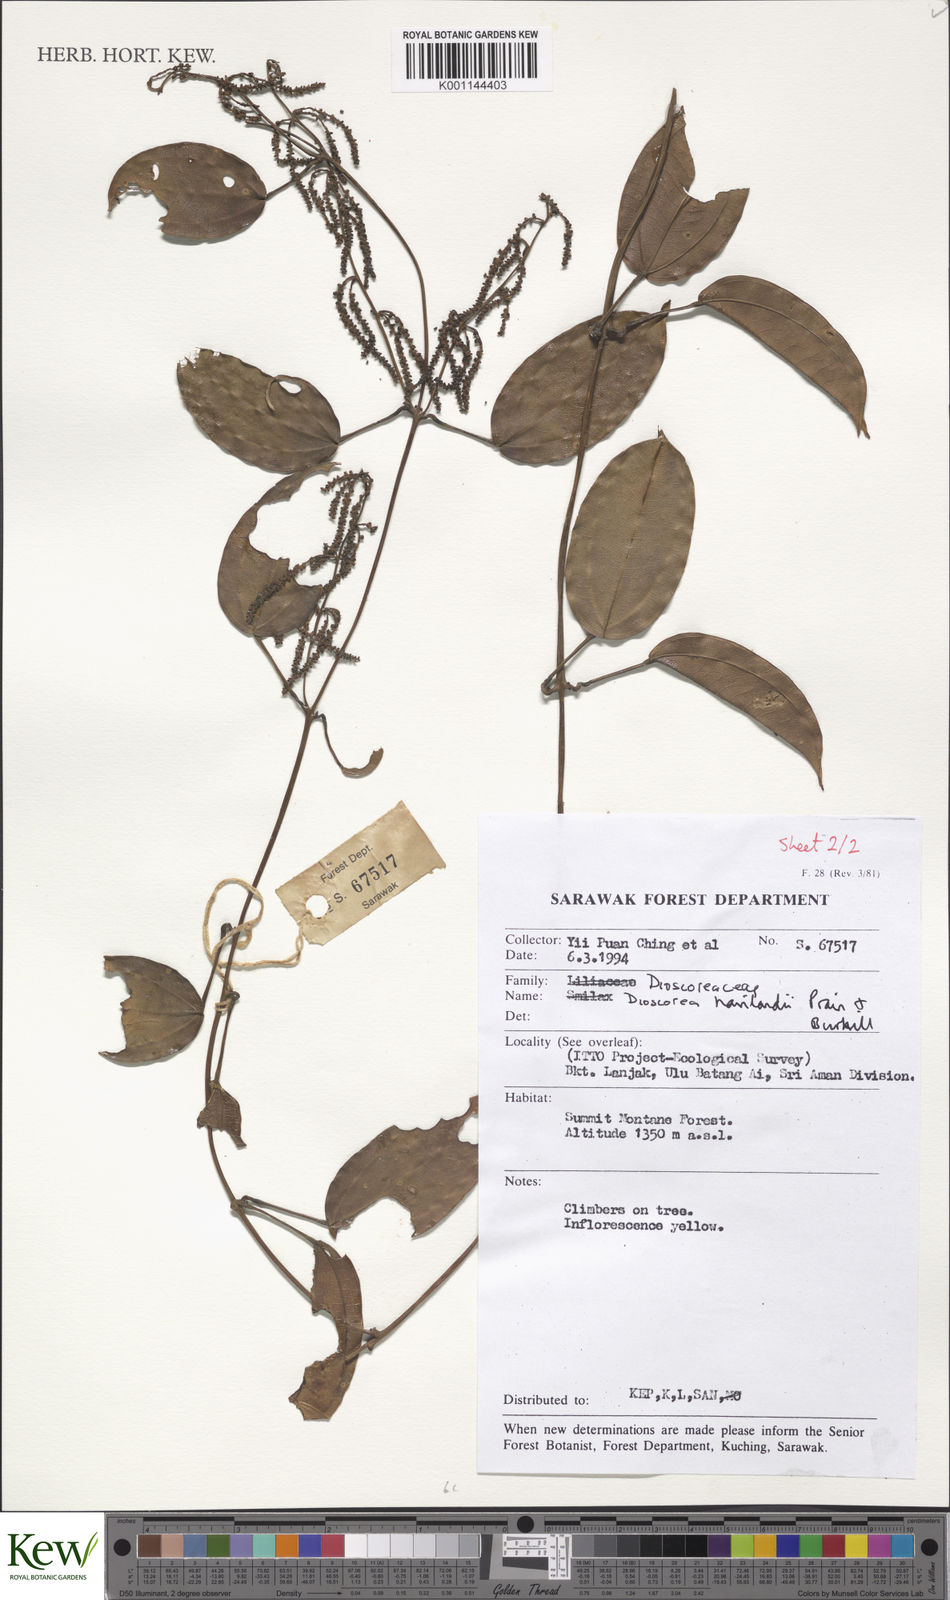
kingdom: Plantae
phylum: Tracheophyta
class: Liliopsida
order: Dioscoreales
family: Dioscoreaceae
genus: Dioscorea
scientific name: Dioscorea havilandii
